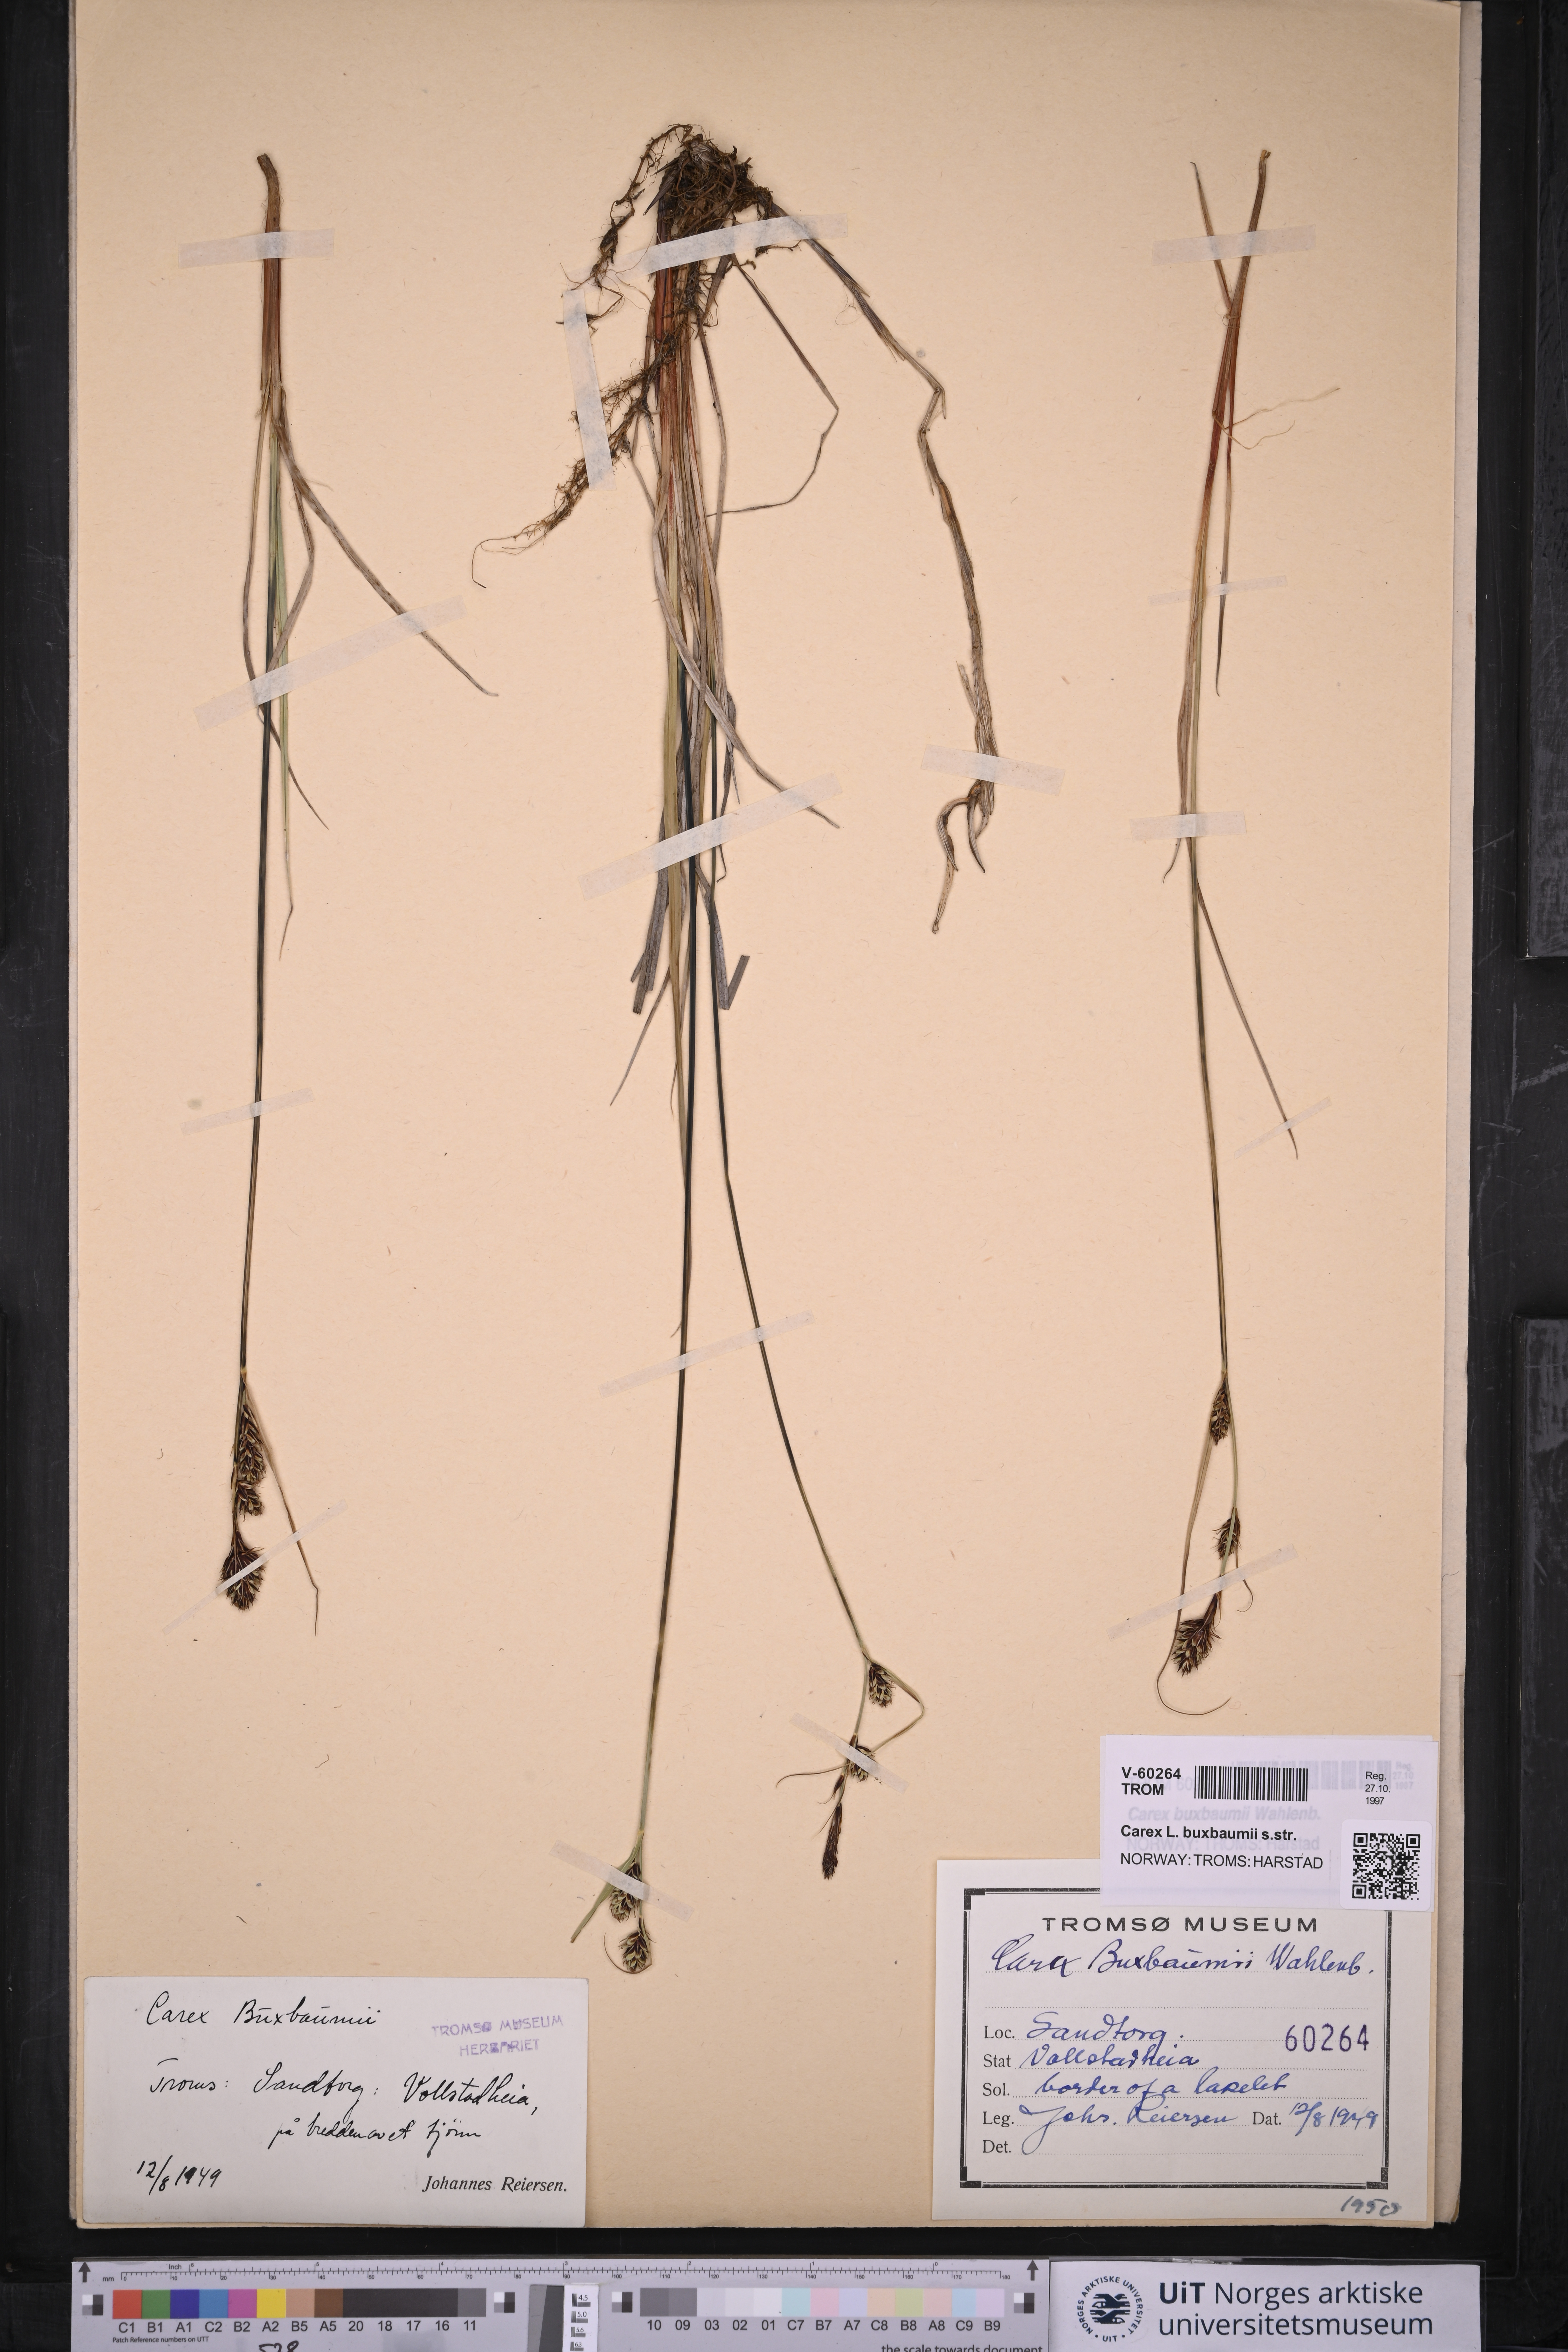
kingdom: Plantae
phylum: Tracheophyta
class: Liliopsida
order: Poales
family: Cyperaceae
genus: Carex
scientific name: Carex buxbaumii
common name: Club sedge
